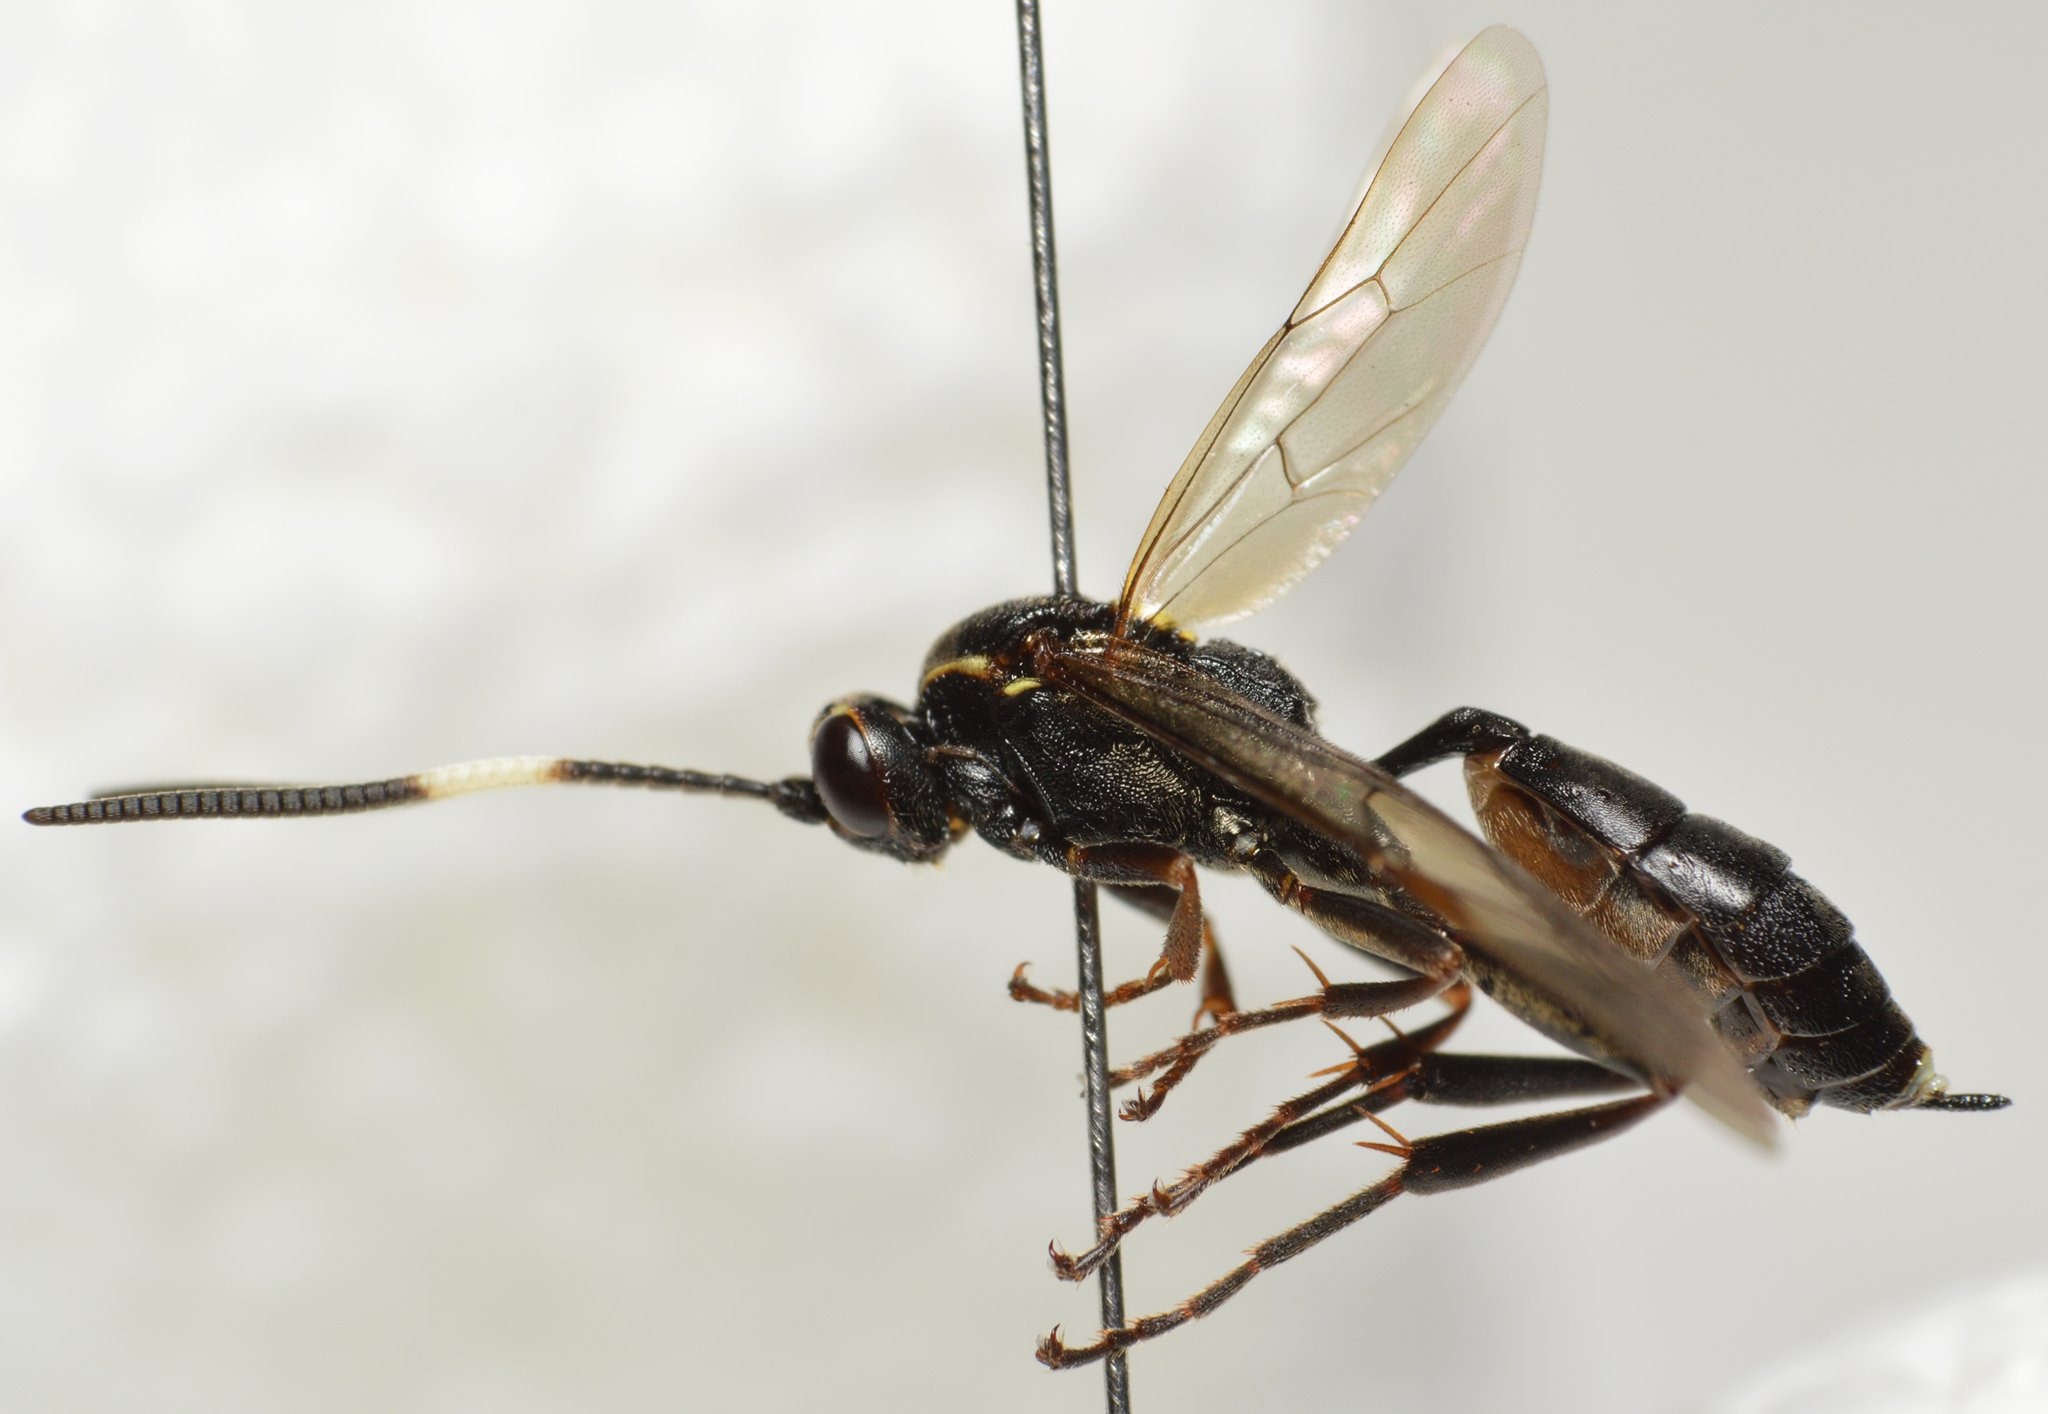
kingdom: Animalia
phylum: Arthropoda
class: Insecta
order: Hymenoptera
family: Ichneumonidae
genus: Cratichneumon
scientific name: Cratichneumon sicarius
